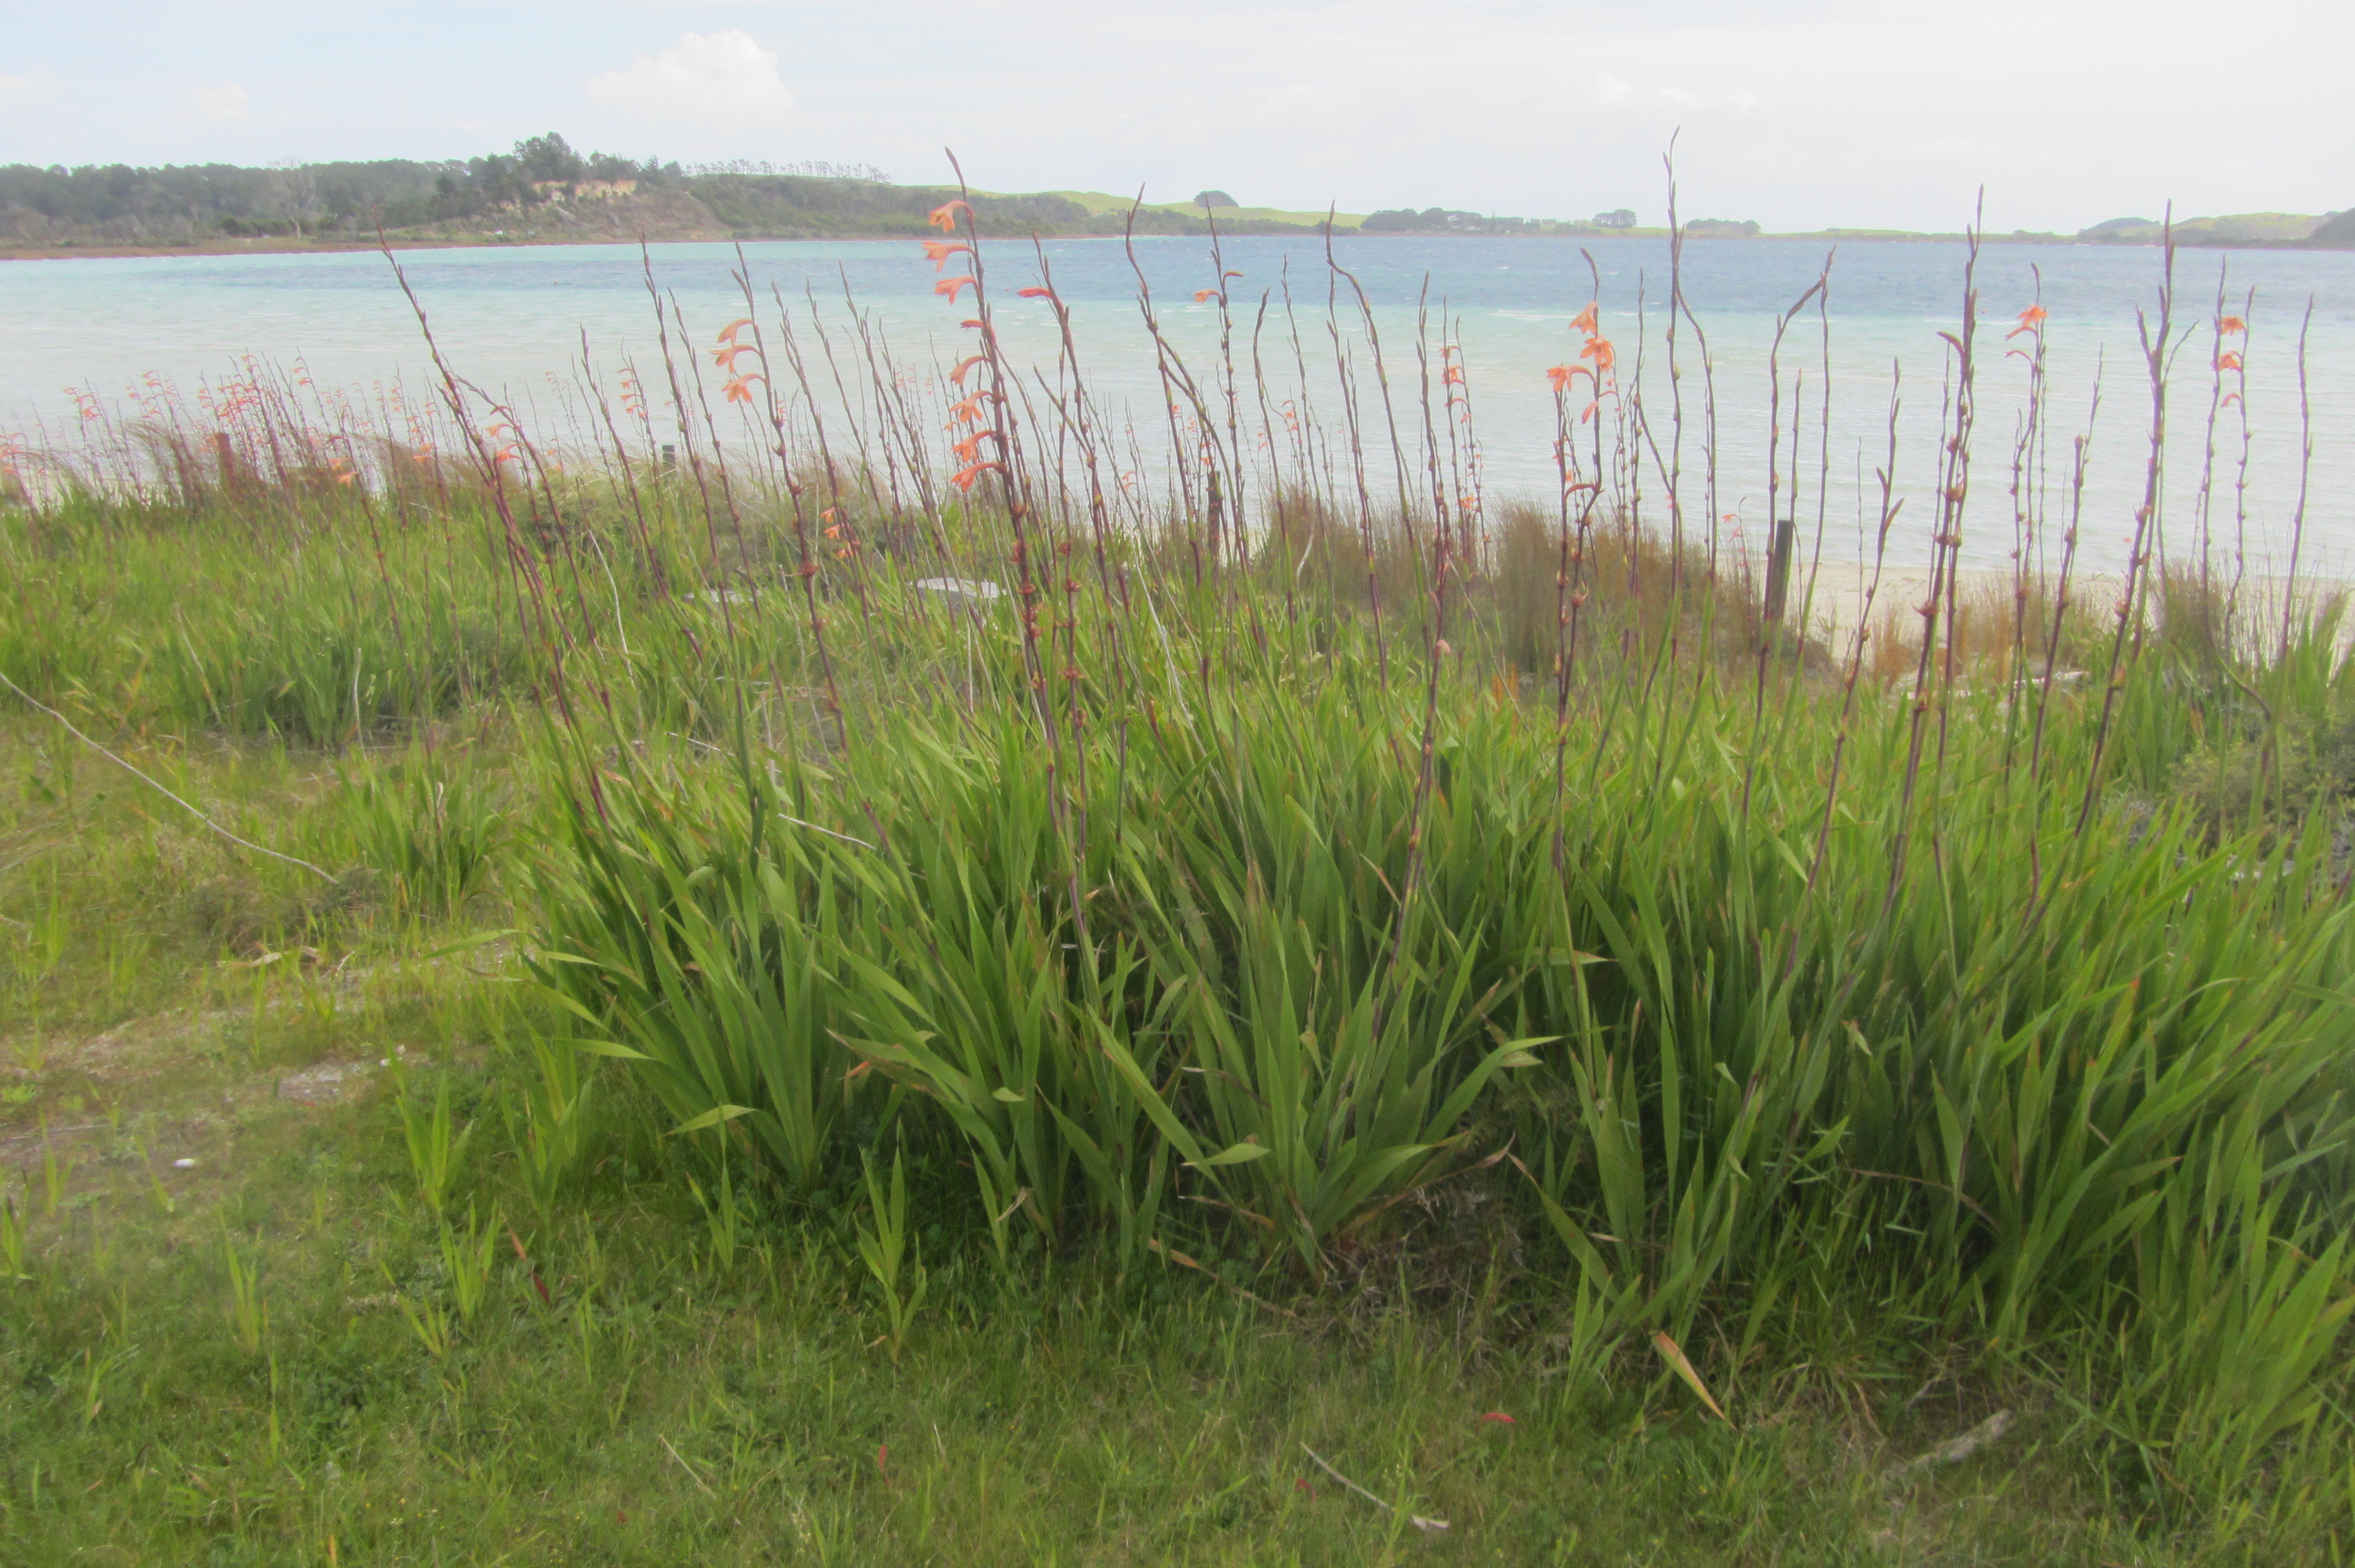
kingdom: Plantae
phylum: Tracheophyta
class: Liliopsida
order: Asparagales
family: Iridaceae
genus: Watsonia
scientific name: Watsonia meriana
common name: Bulbil bugle-lily
